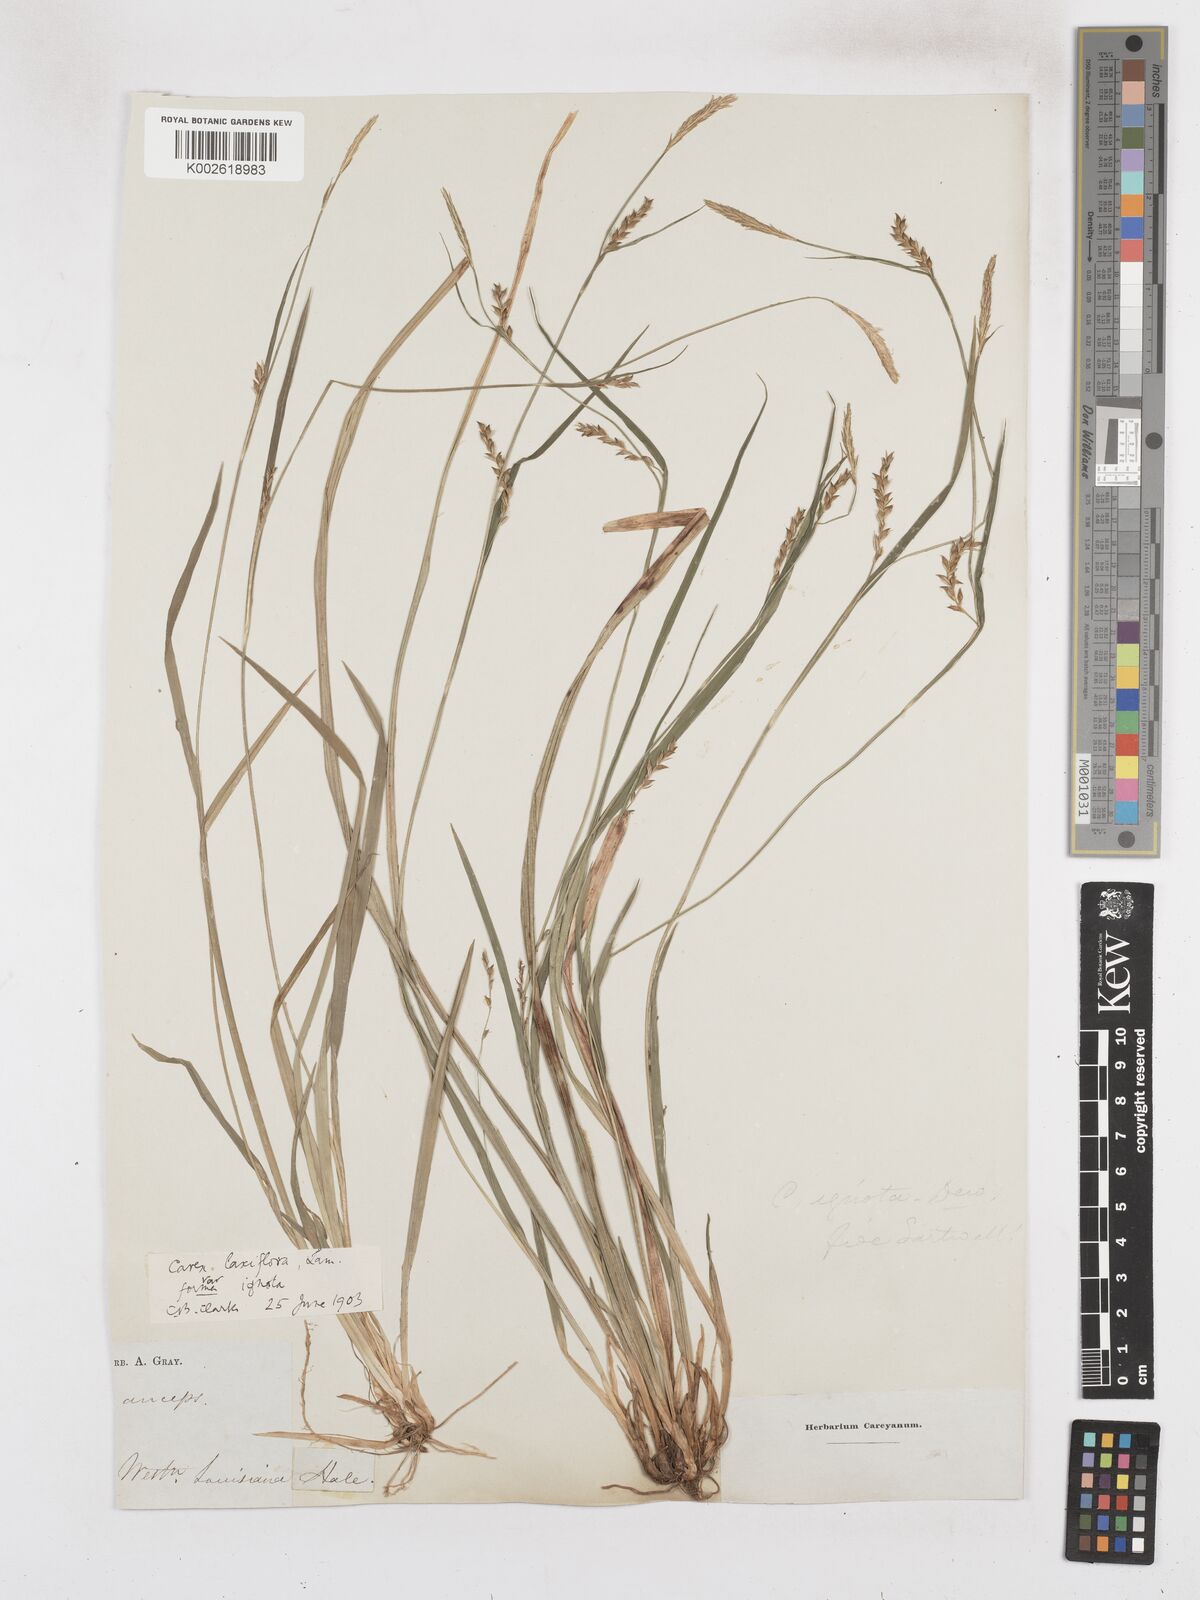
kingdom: Plantae
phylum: Tracheophyta
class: Liliopsida
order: Poales
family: Cyperaceae
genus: Carex
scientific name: Carex striatula
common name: Lined sedge
